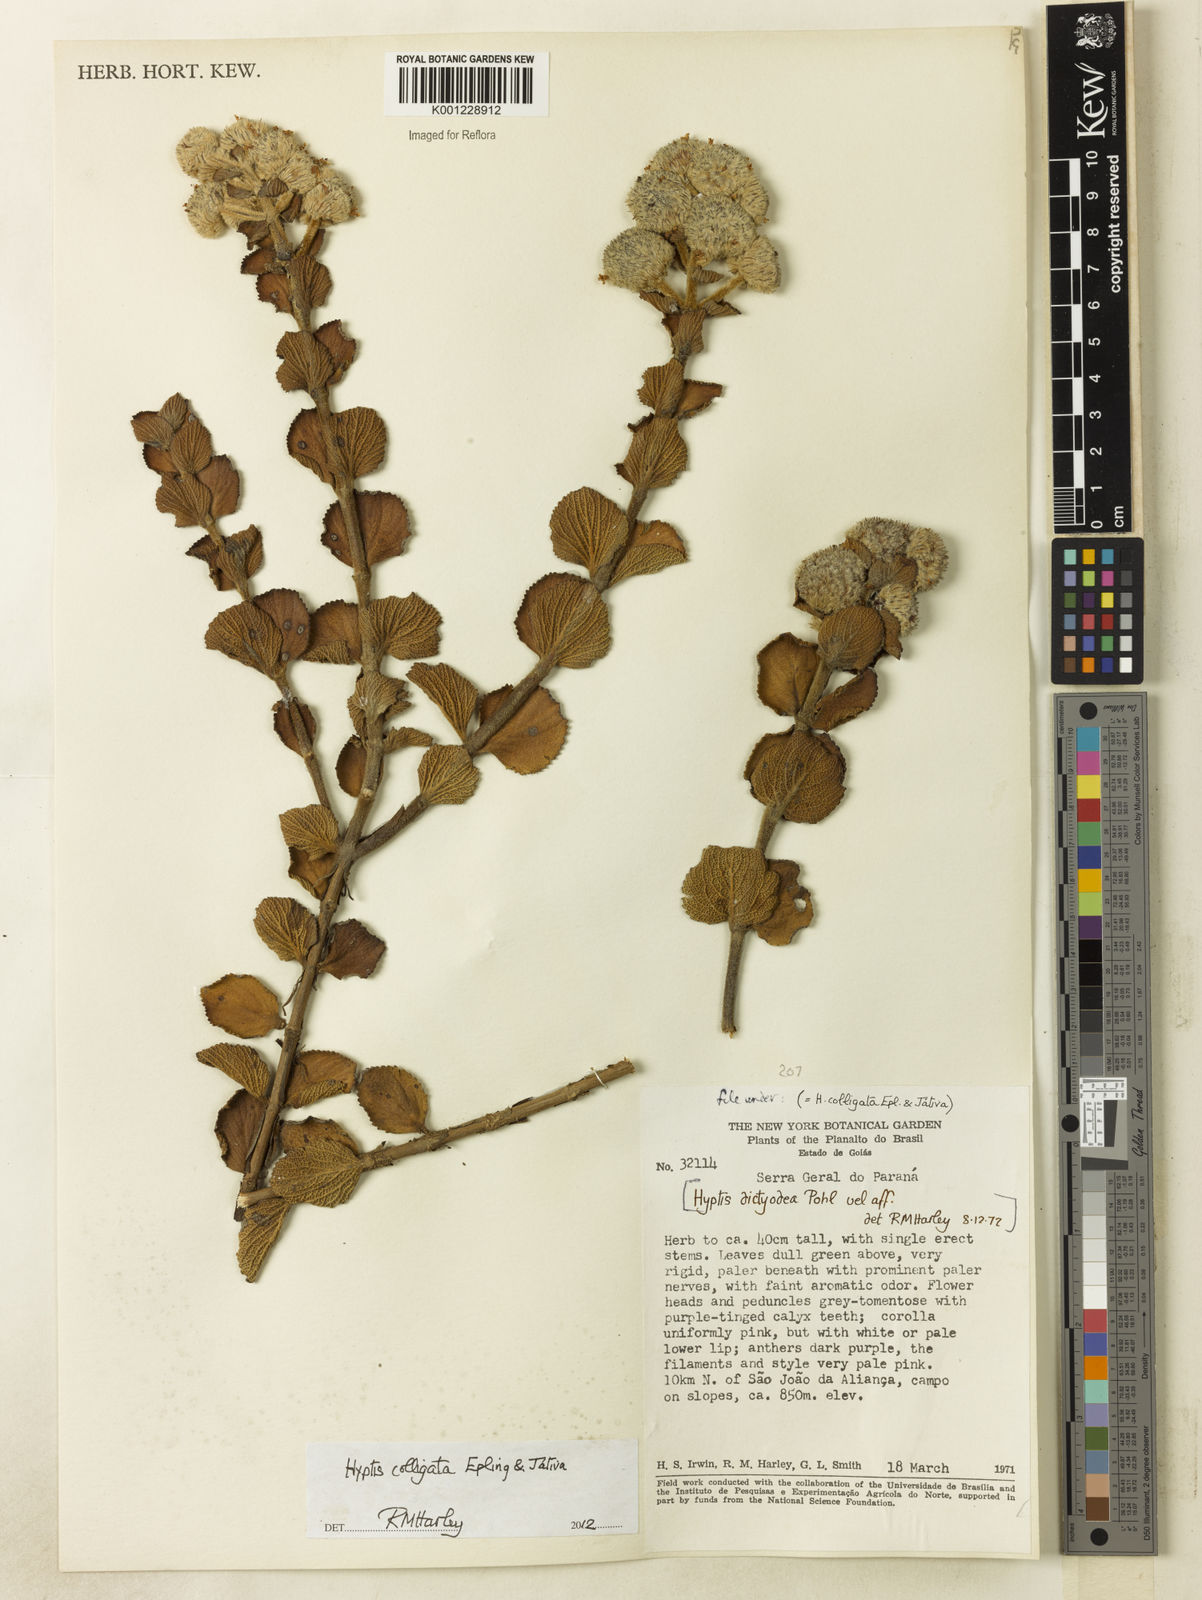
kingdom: Plantae
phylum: Tracheophyta
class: Magnoliopsida
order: Lamiales
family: Lamiaceae
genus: Hyptis
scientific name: Hyptis
